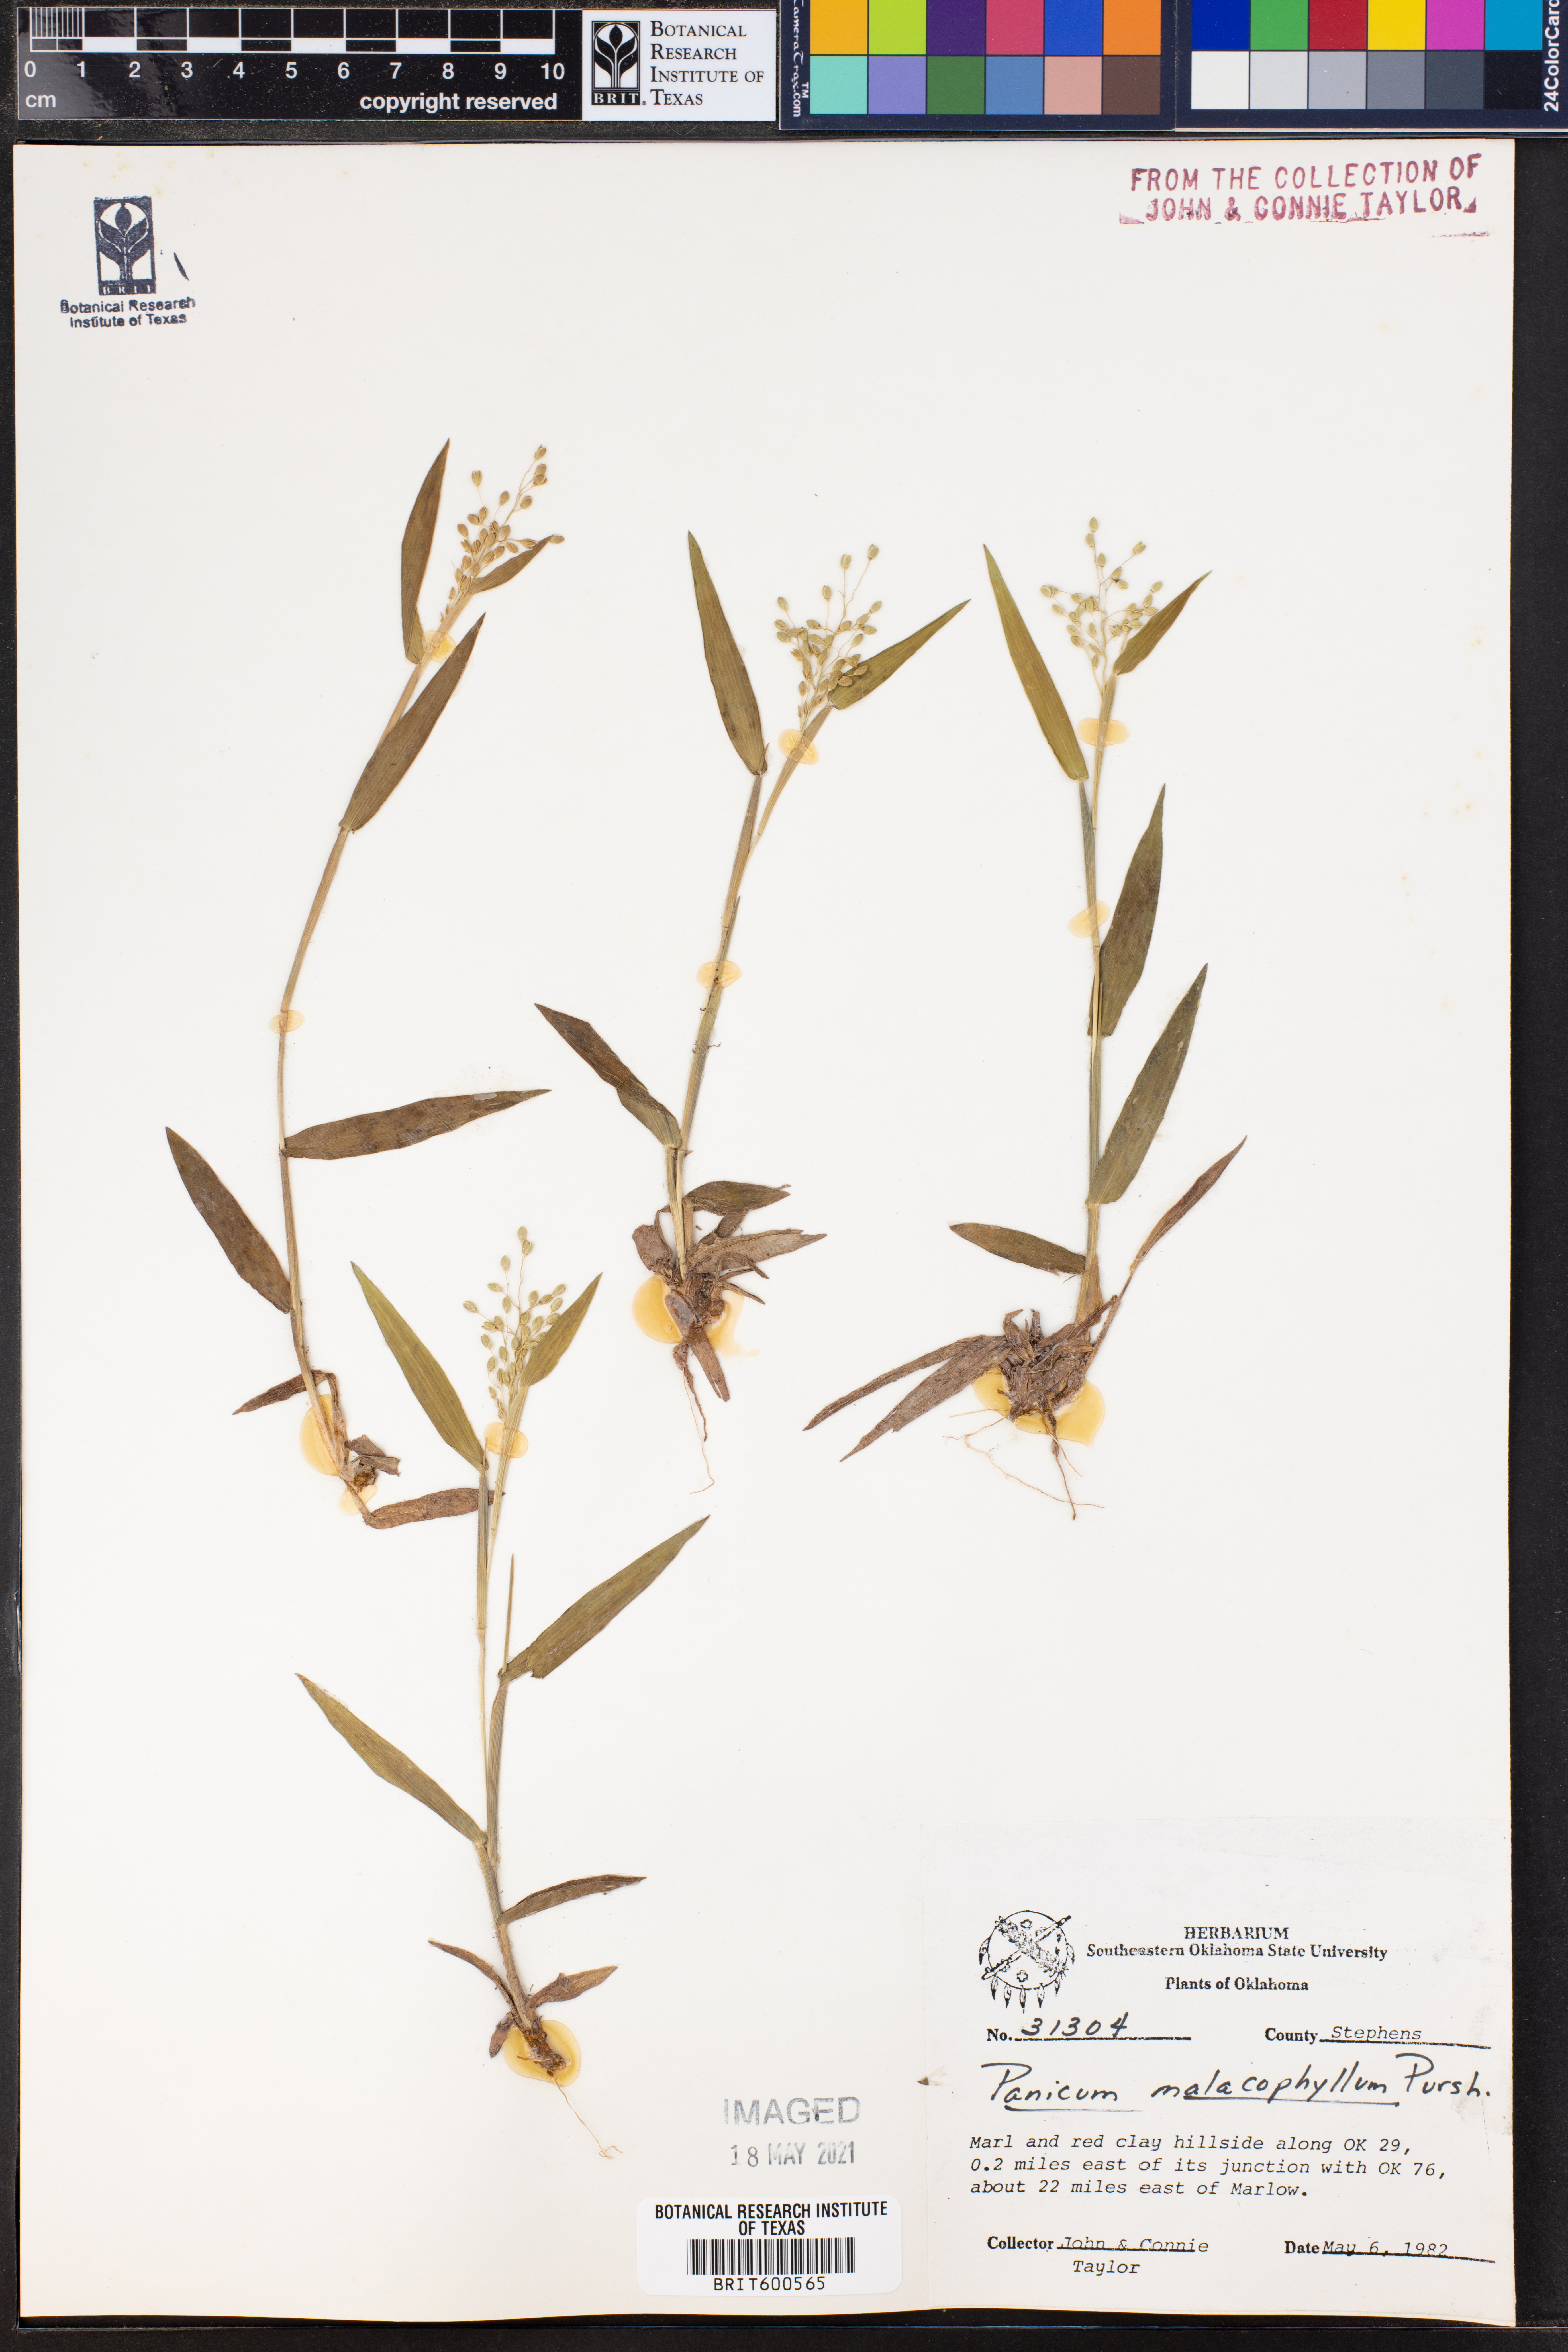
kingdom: Plantae
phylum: Tracheophyta
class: Liliopsida
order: Poales
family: Poaceae
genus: Dichanthelium
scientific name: Dichanthelium malacophyllum
